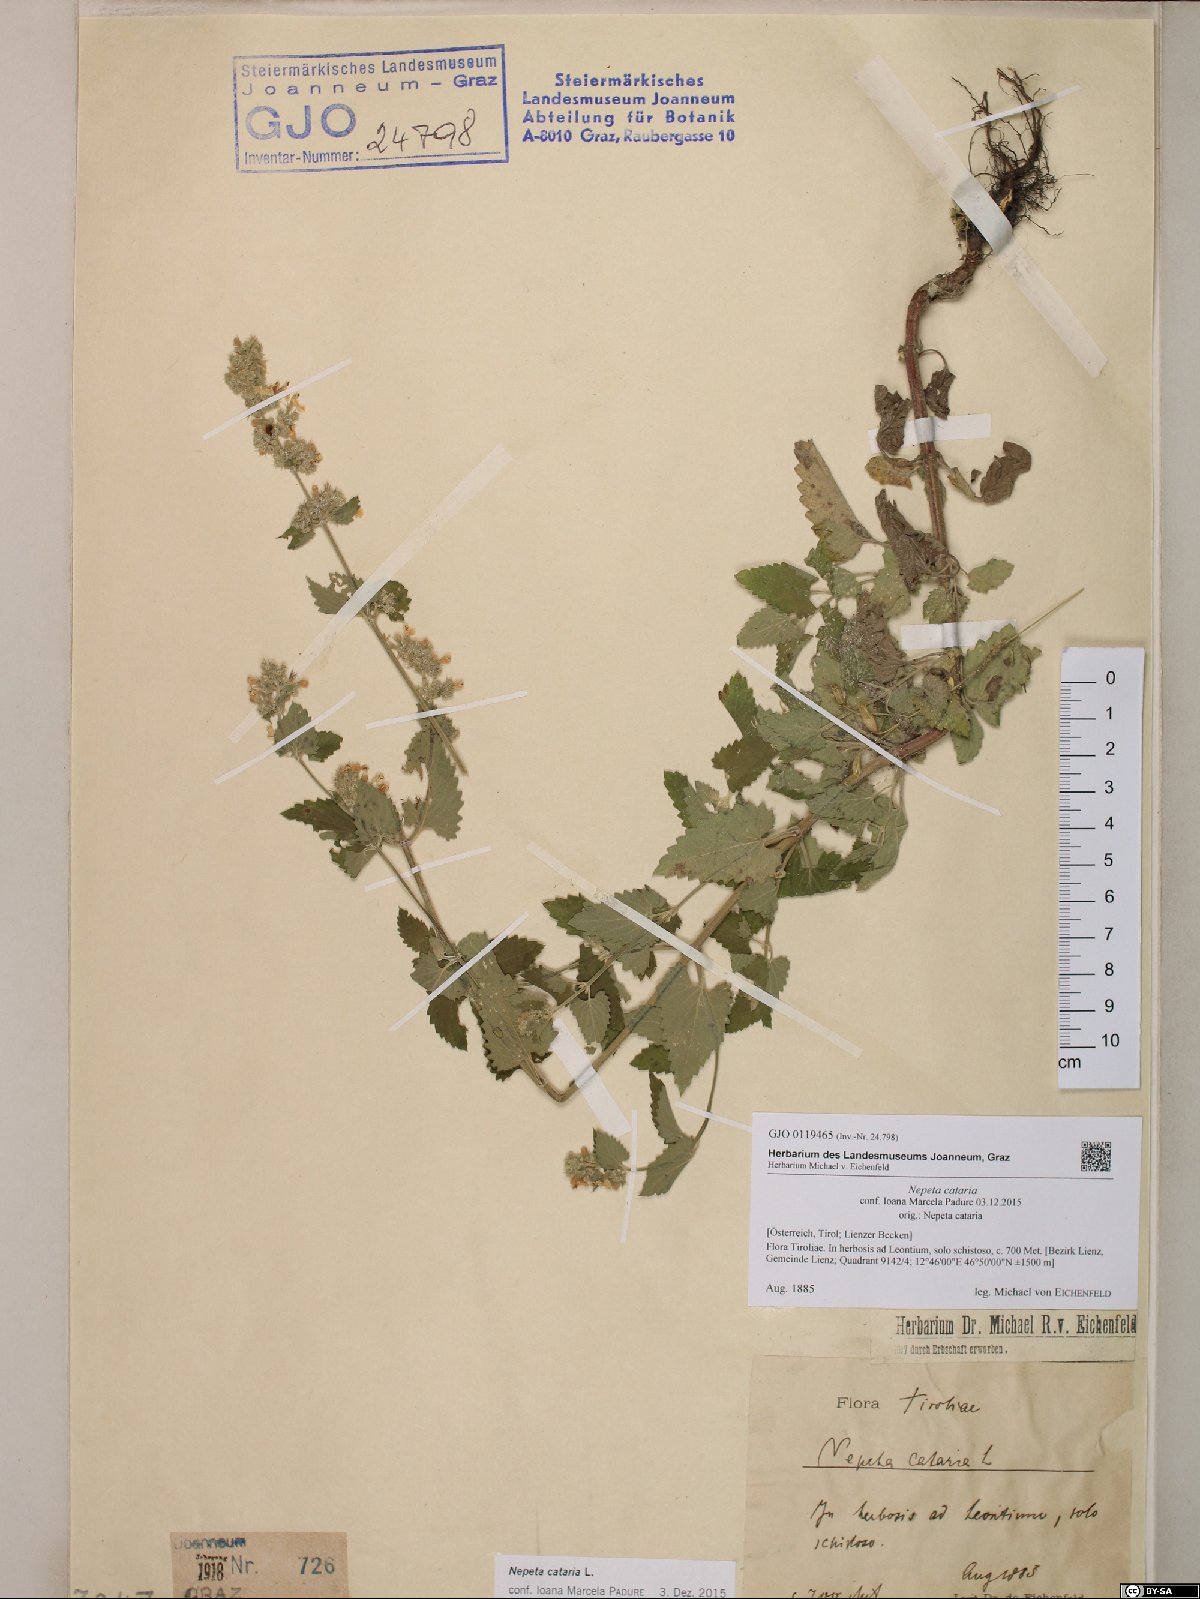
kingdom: Plantae
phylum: Tracheophyta
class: Magnoliopsida
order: Lamiales
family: Lamiaceae
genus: Nepeta
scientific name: Nepeta cataria
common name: Catnip
